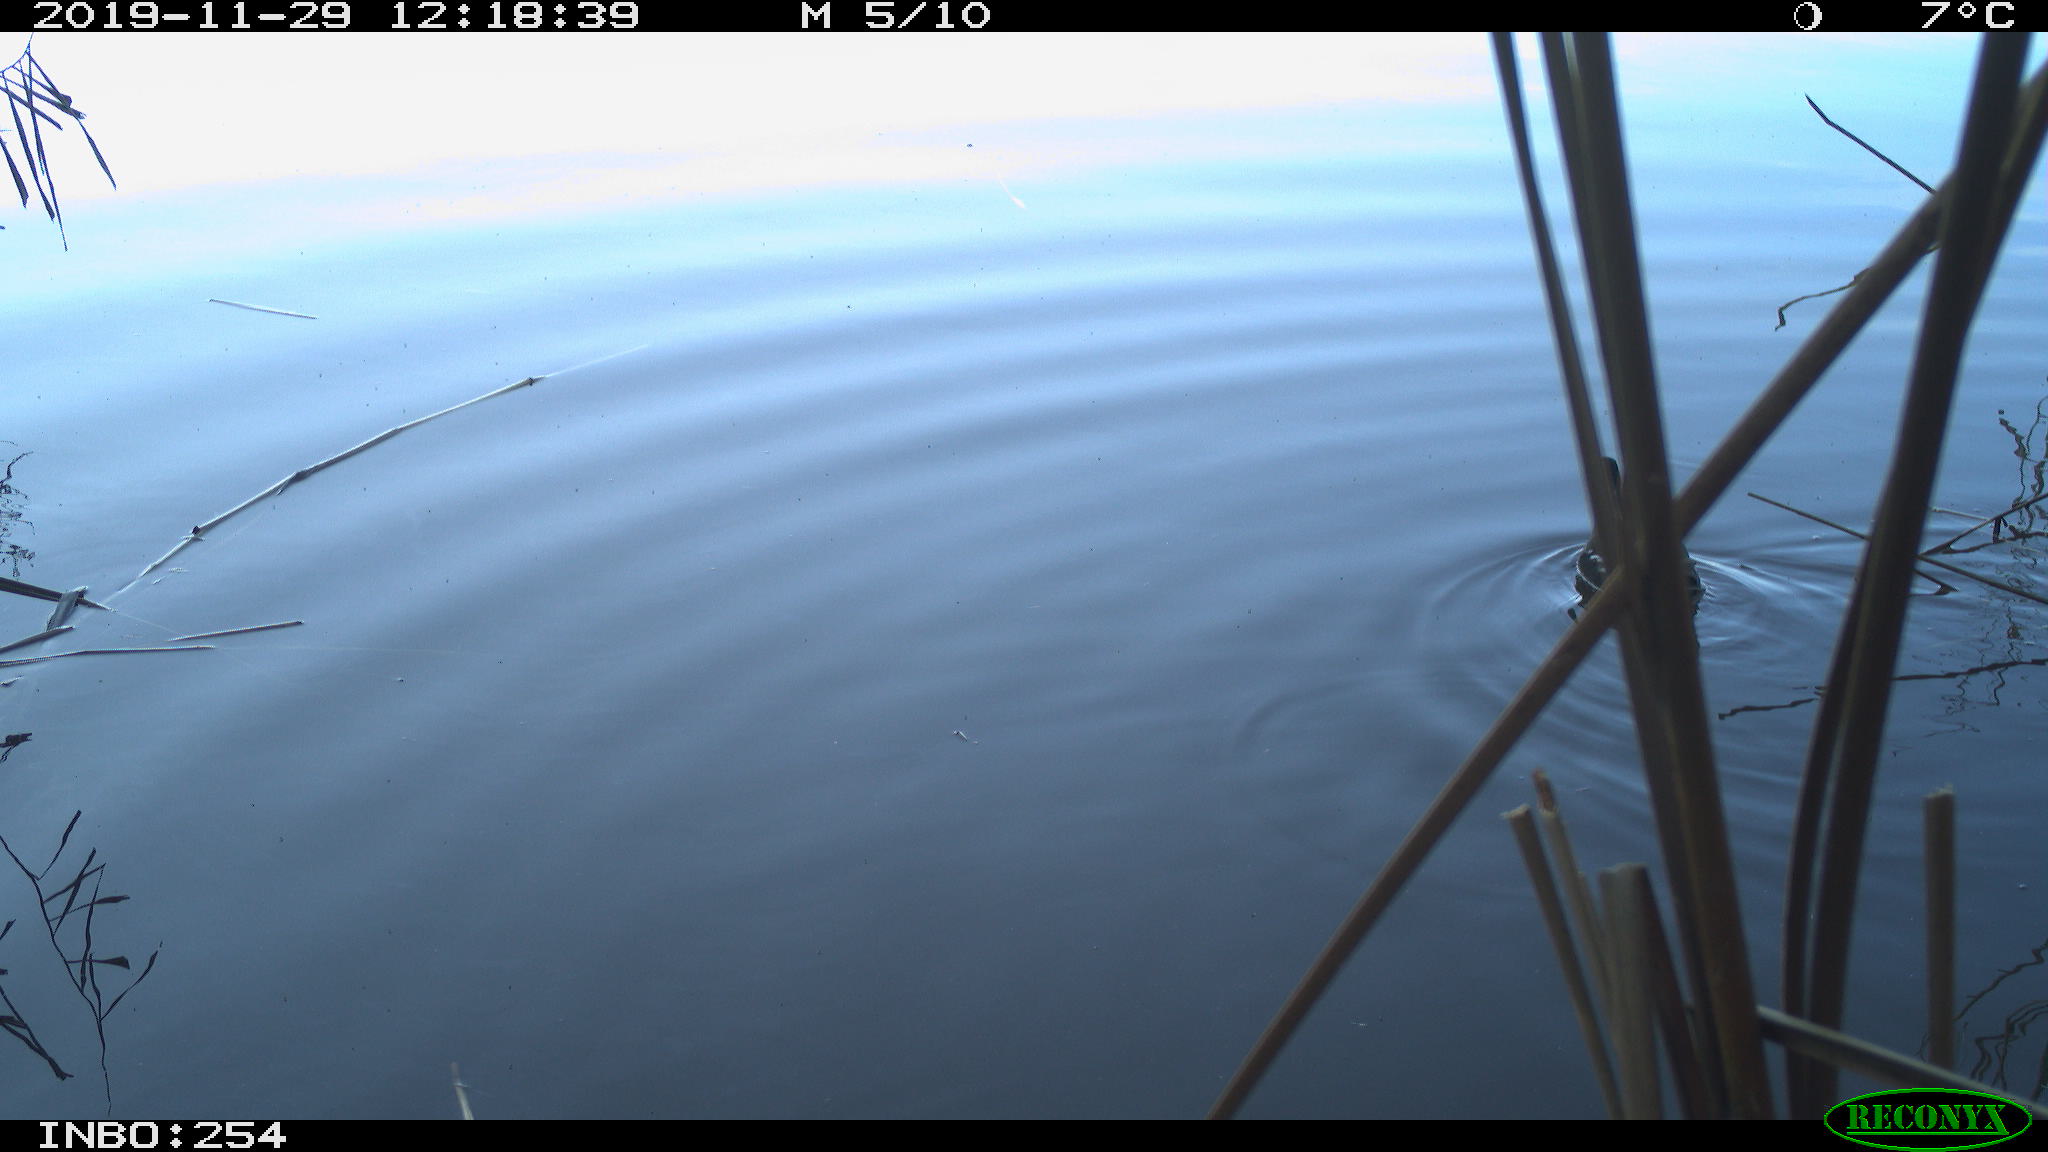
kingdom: Animalia
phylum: Chordata
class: Aves
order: Gruiformes
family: Rallidae
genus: Gallinula
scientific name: Gallinula chloropus
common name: Common moorhen
